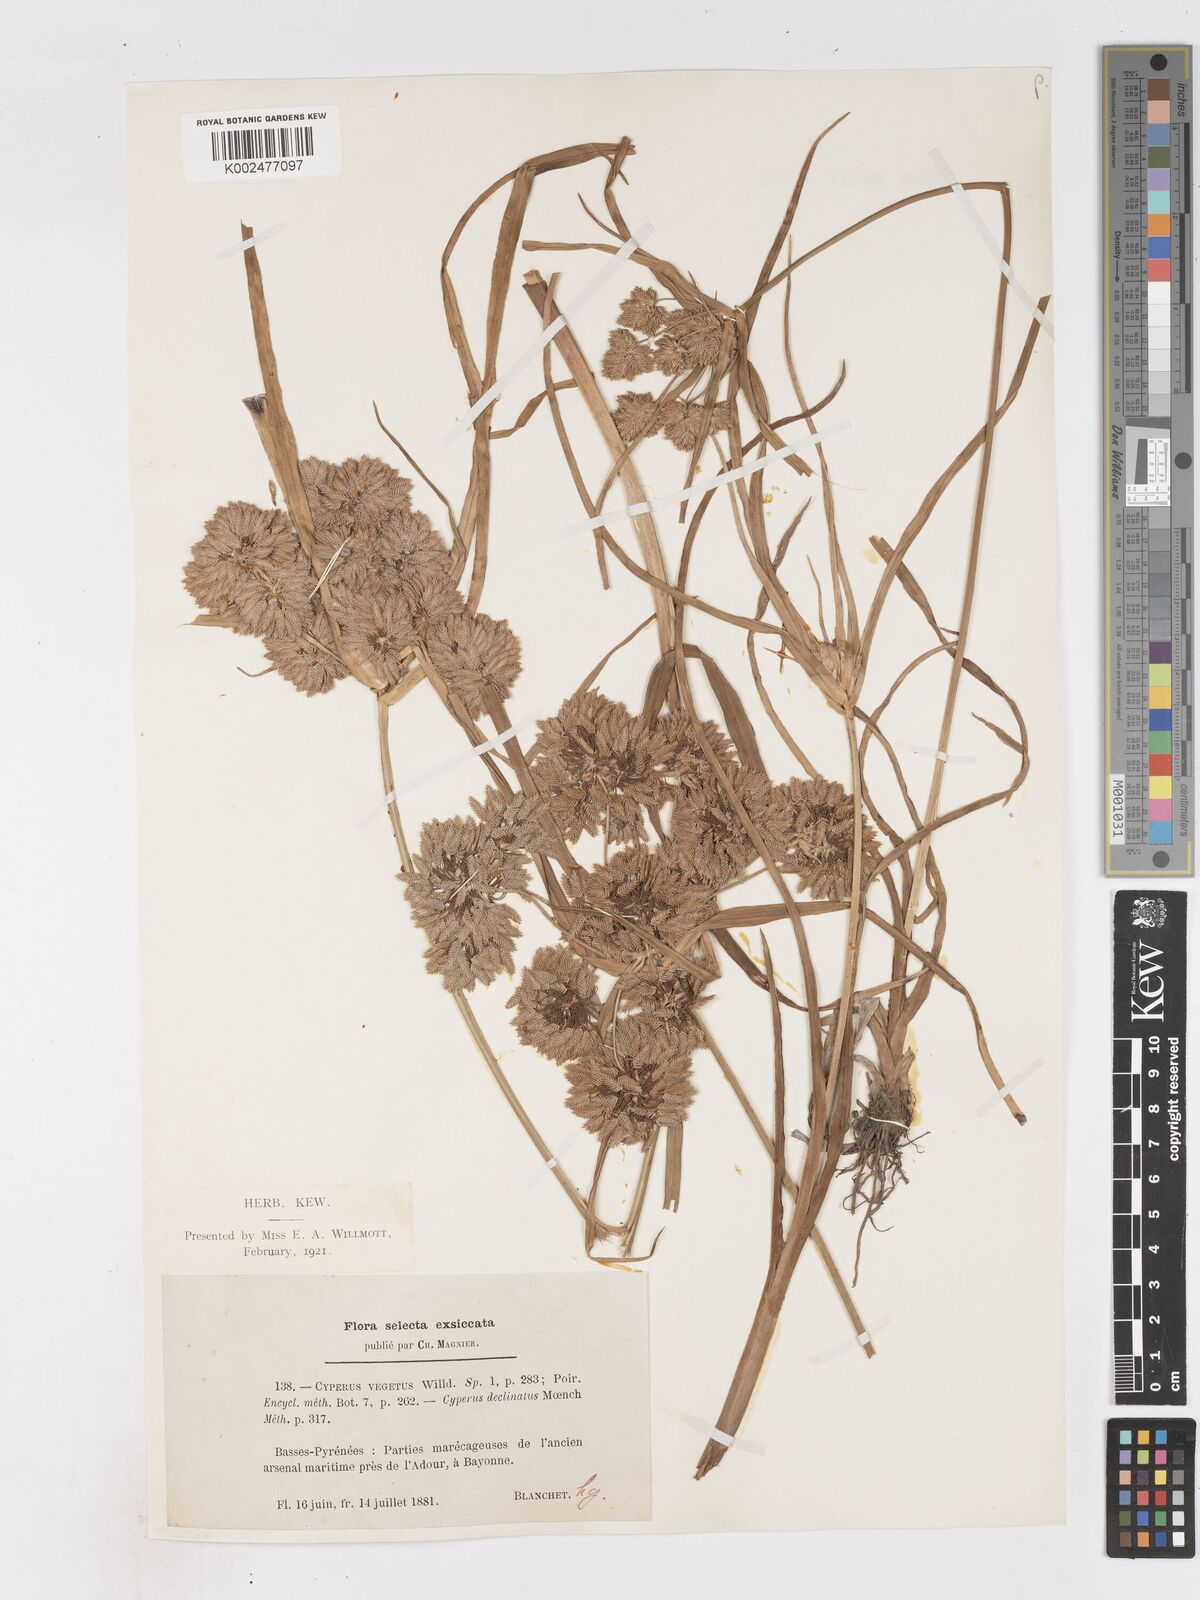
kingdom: Plantae
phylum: Tracheophyta
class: Liliopsida
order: Poales
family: Cyperaceae
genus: Cyperus
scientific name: Cyperus eragrostis
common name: Tall flatsedge
